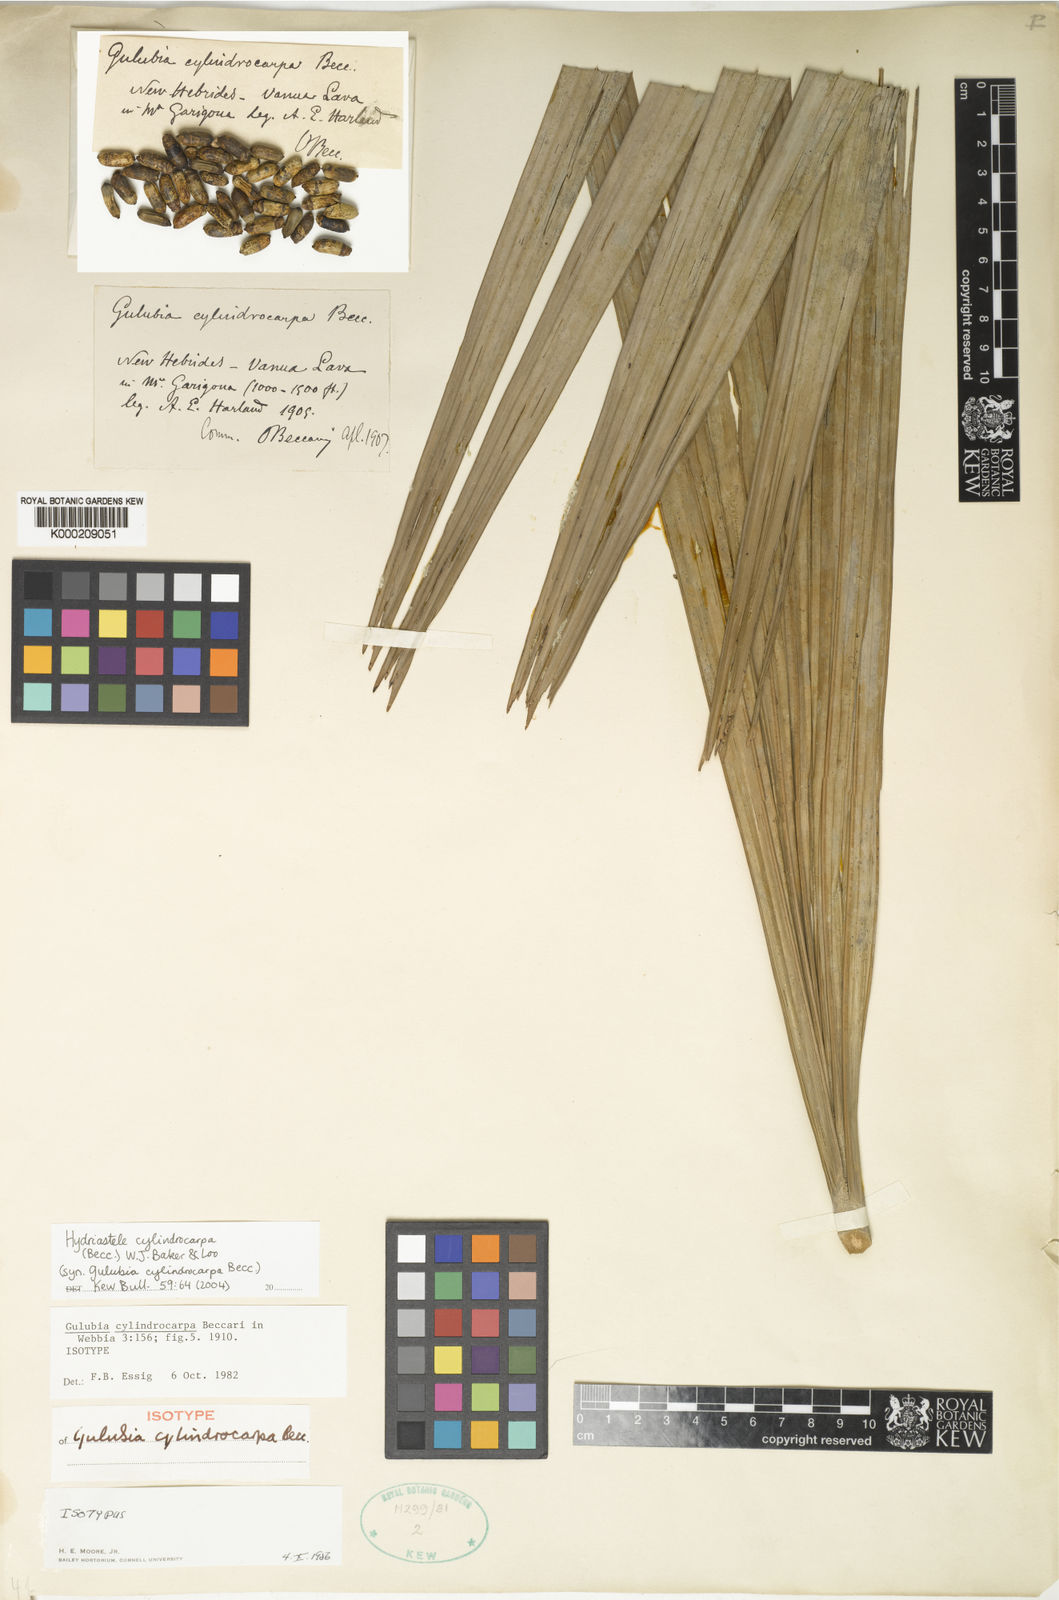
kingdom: Plantae
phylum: Tracheophyta
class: Liliopsida
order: Arecales
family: Arecaceae
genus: Hydriastele
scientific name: Hydriastele cylindrocarpa
